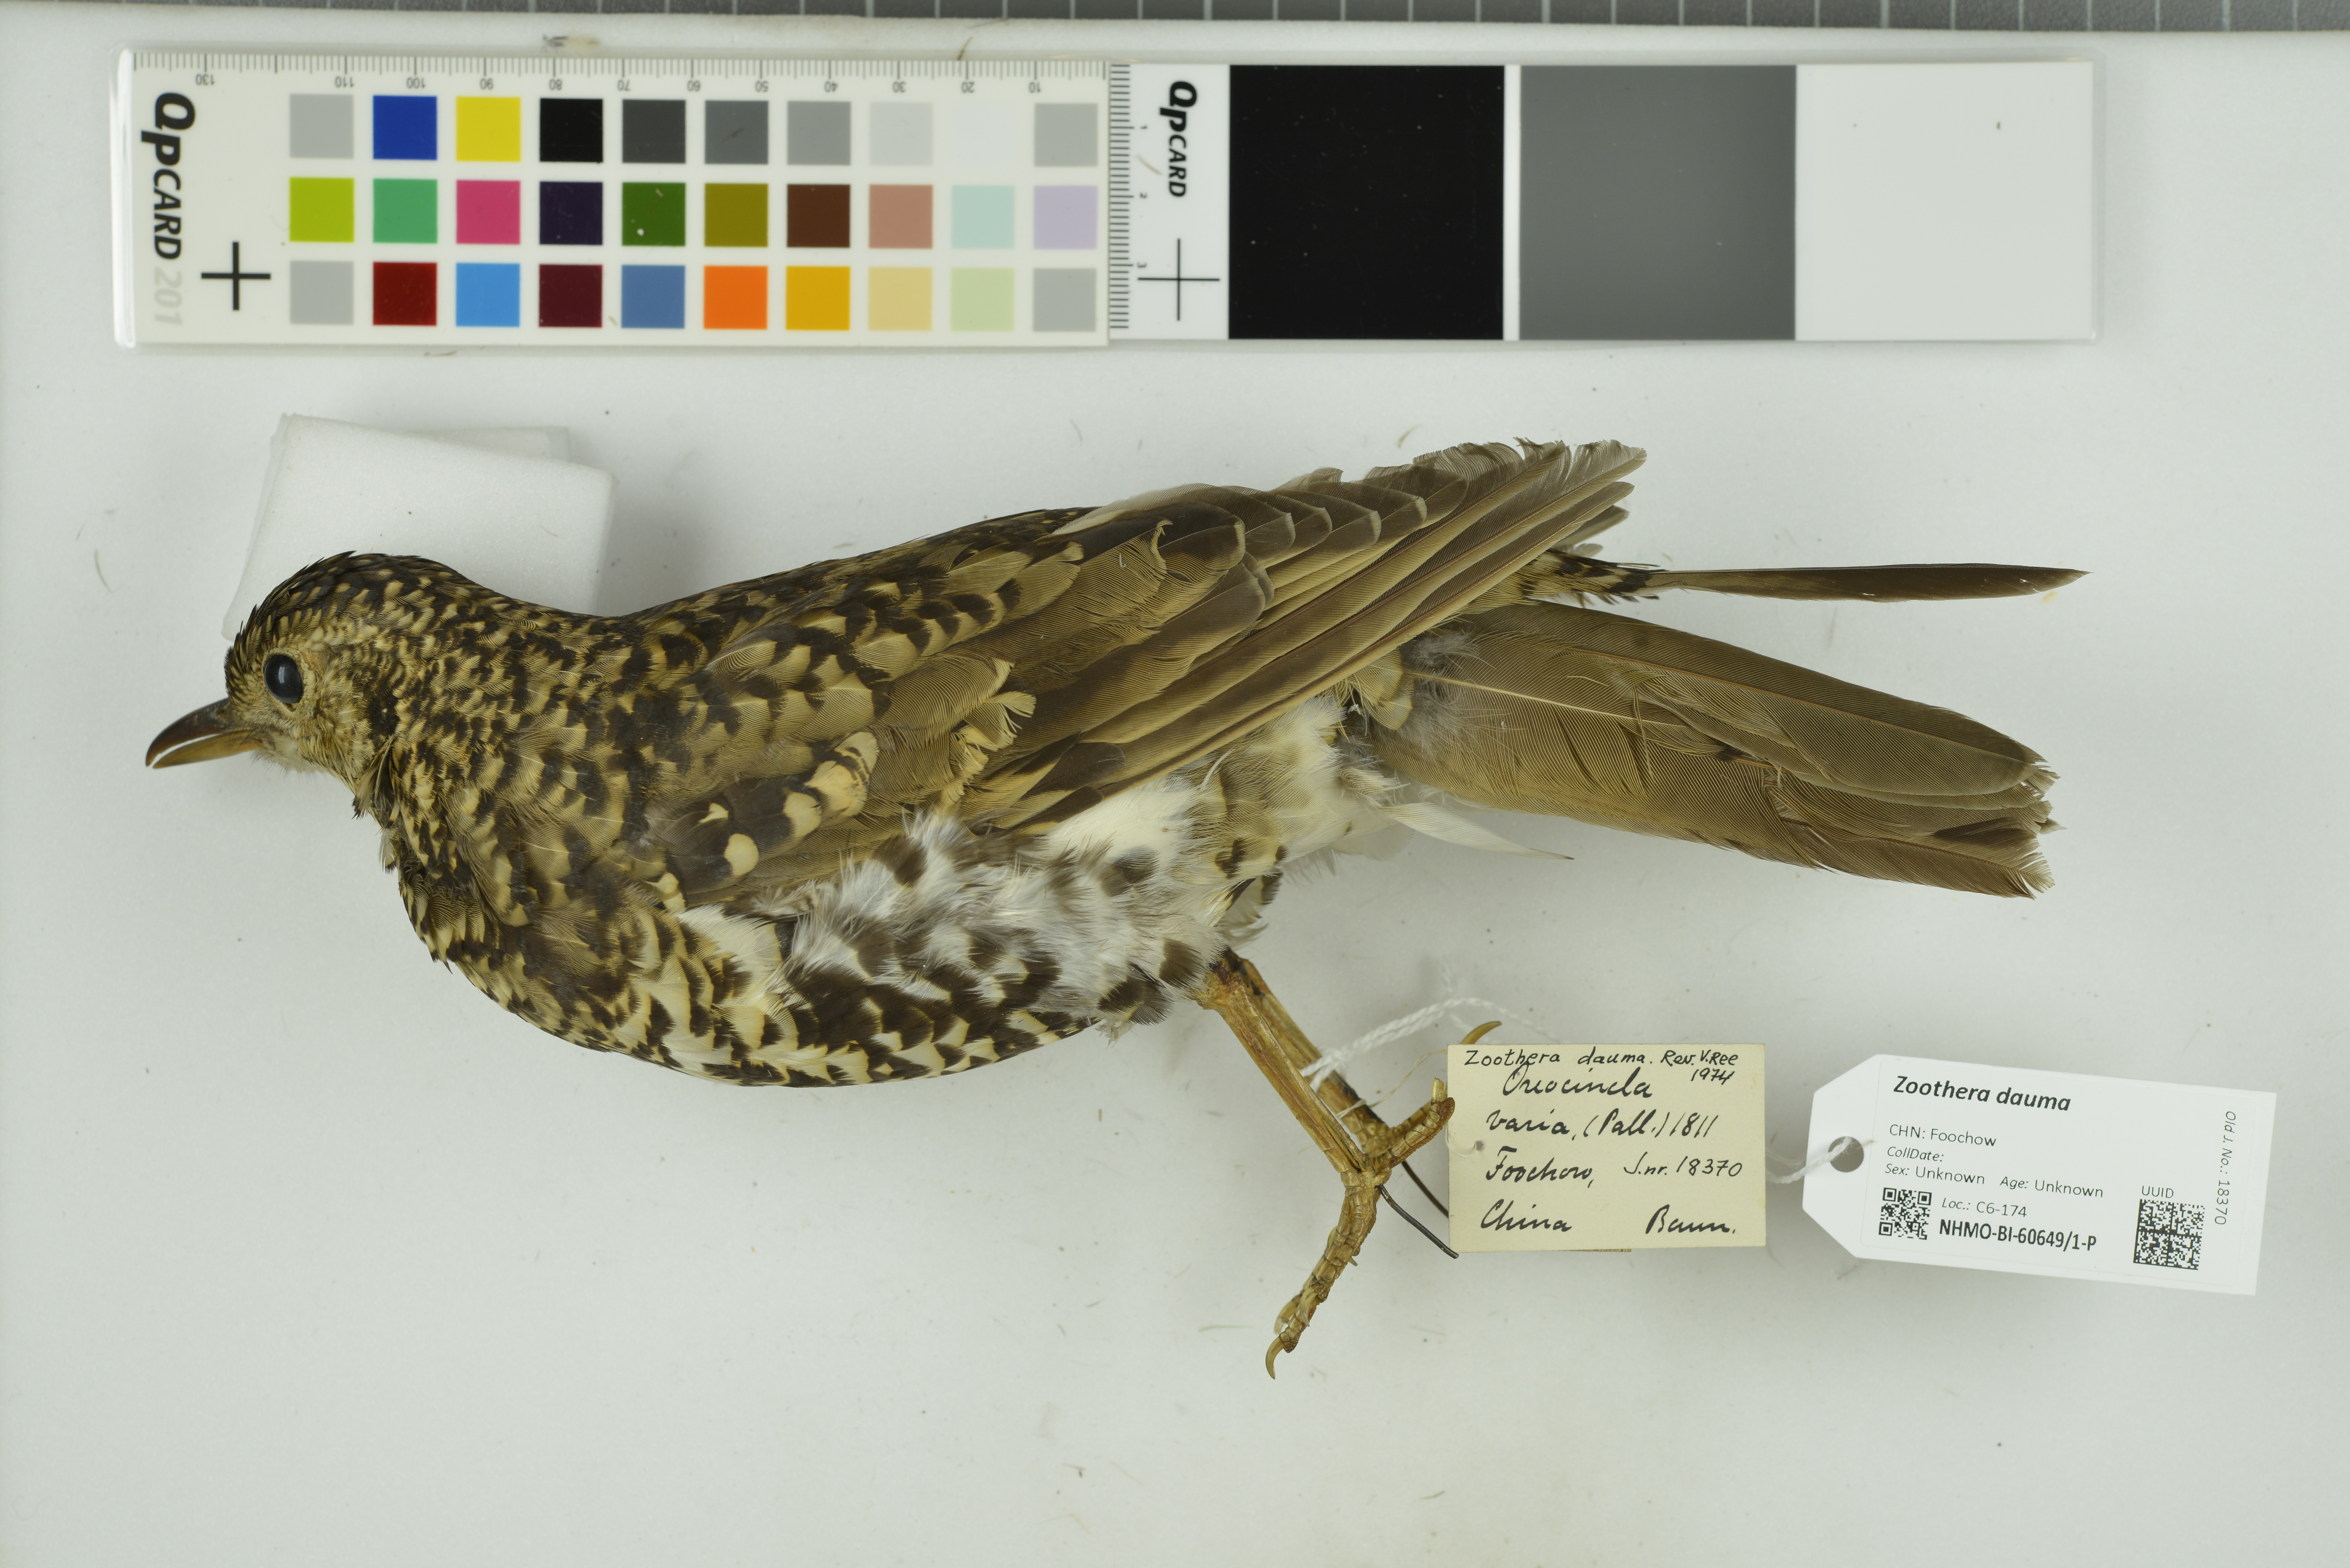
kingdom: Animalia
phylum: Chordata
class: Aves
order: Passeriformes
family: Turdidae
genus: Zoothera
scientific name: Zoothera dauma
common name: Scaly thrush
